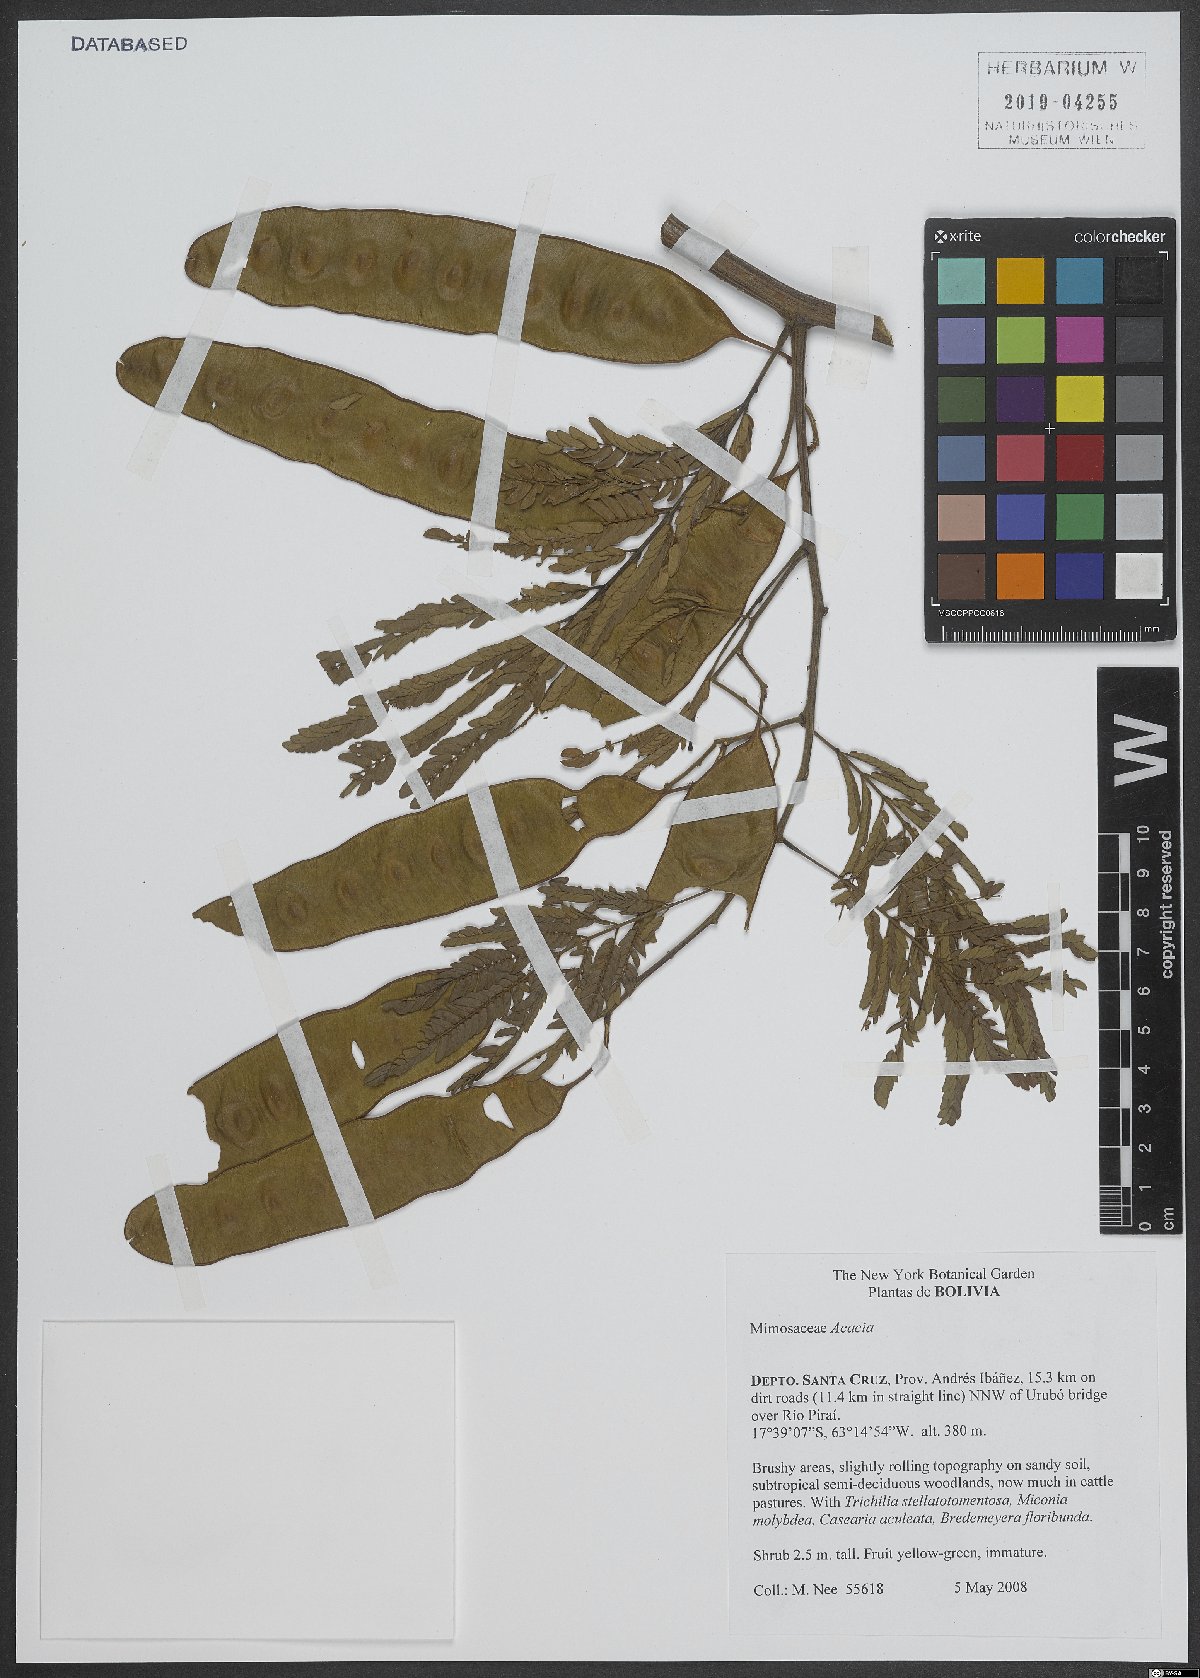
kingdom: Plantae
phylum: Tracheophyta
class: Magnoliopsida
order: Fabales
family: Fabaceae
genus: Acacia
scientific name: Acacia
